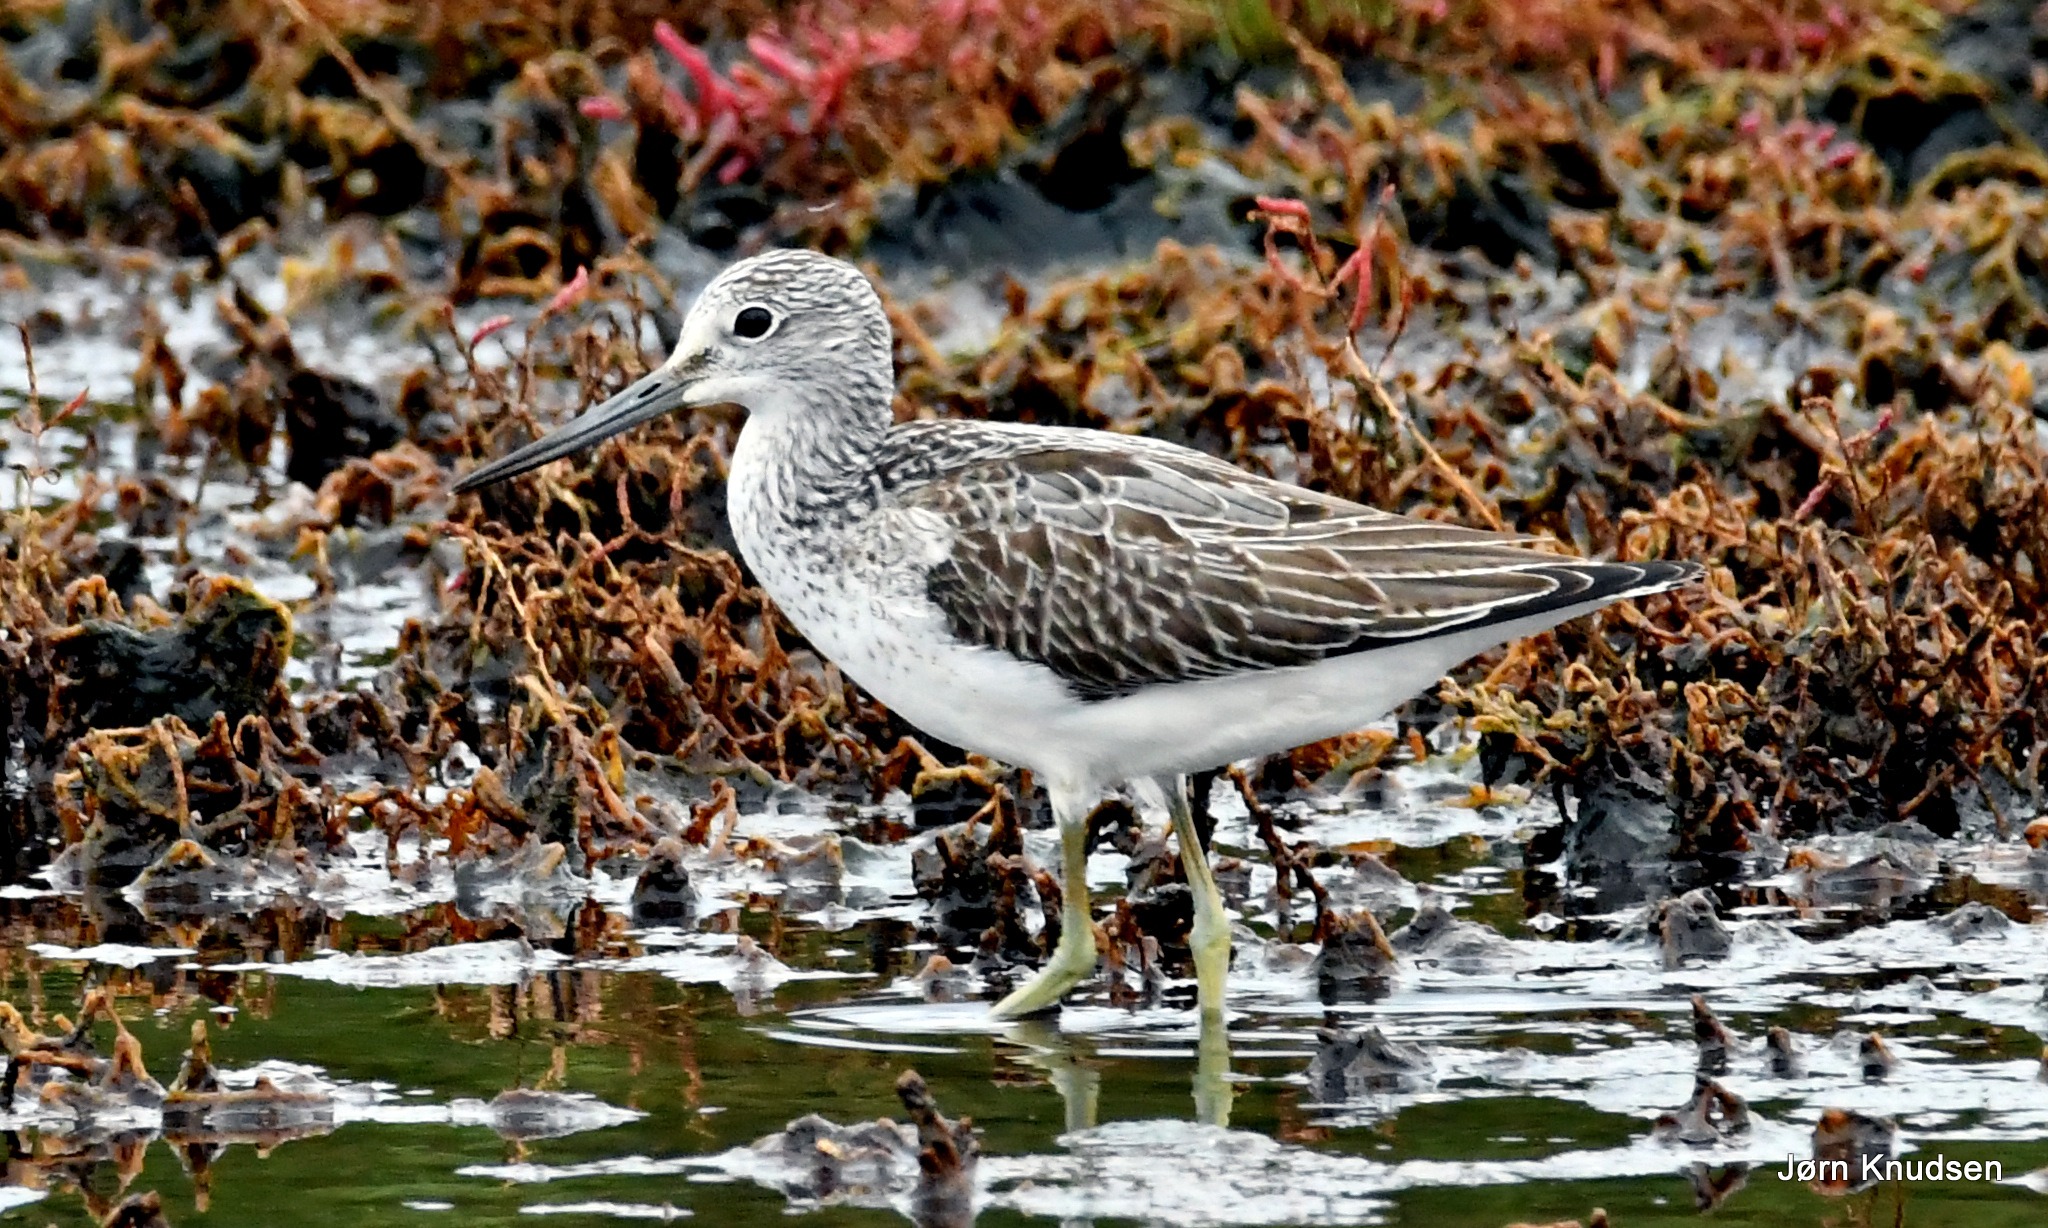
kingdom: Animalia
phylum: Chordata
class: Aves
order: Charadriiformes
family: Scolopacidae
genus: Tringa
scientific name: Tringa nebularia
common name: Hvidklire
